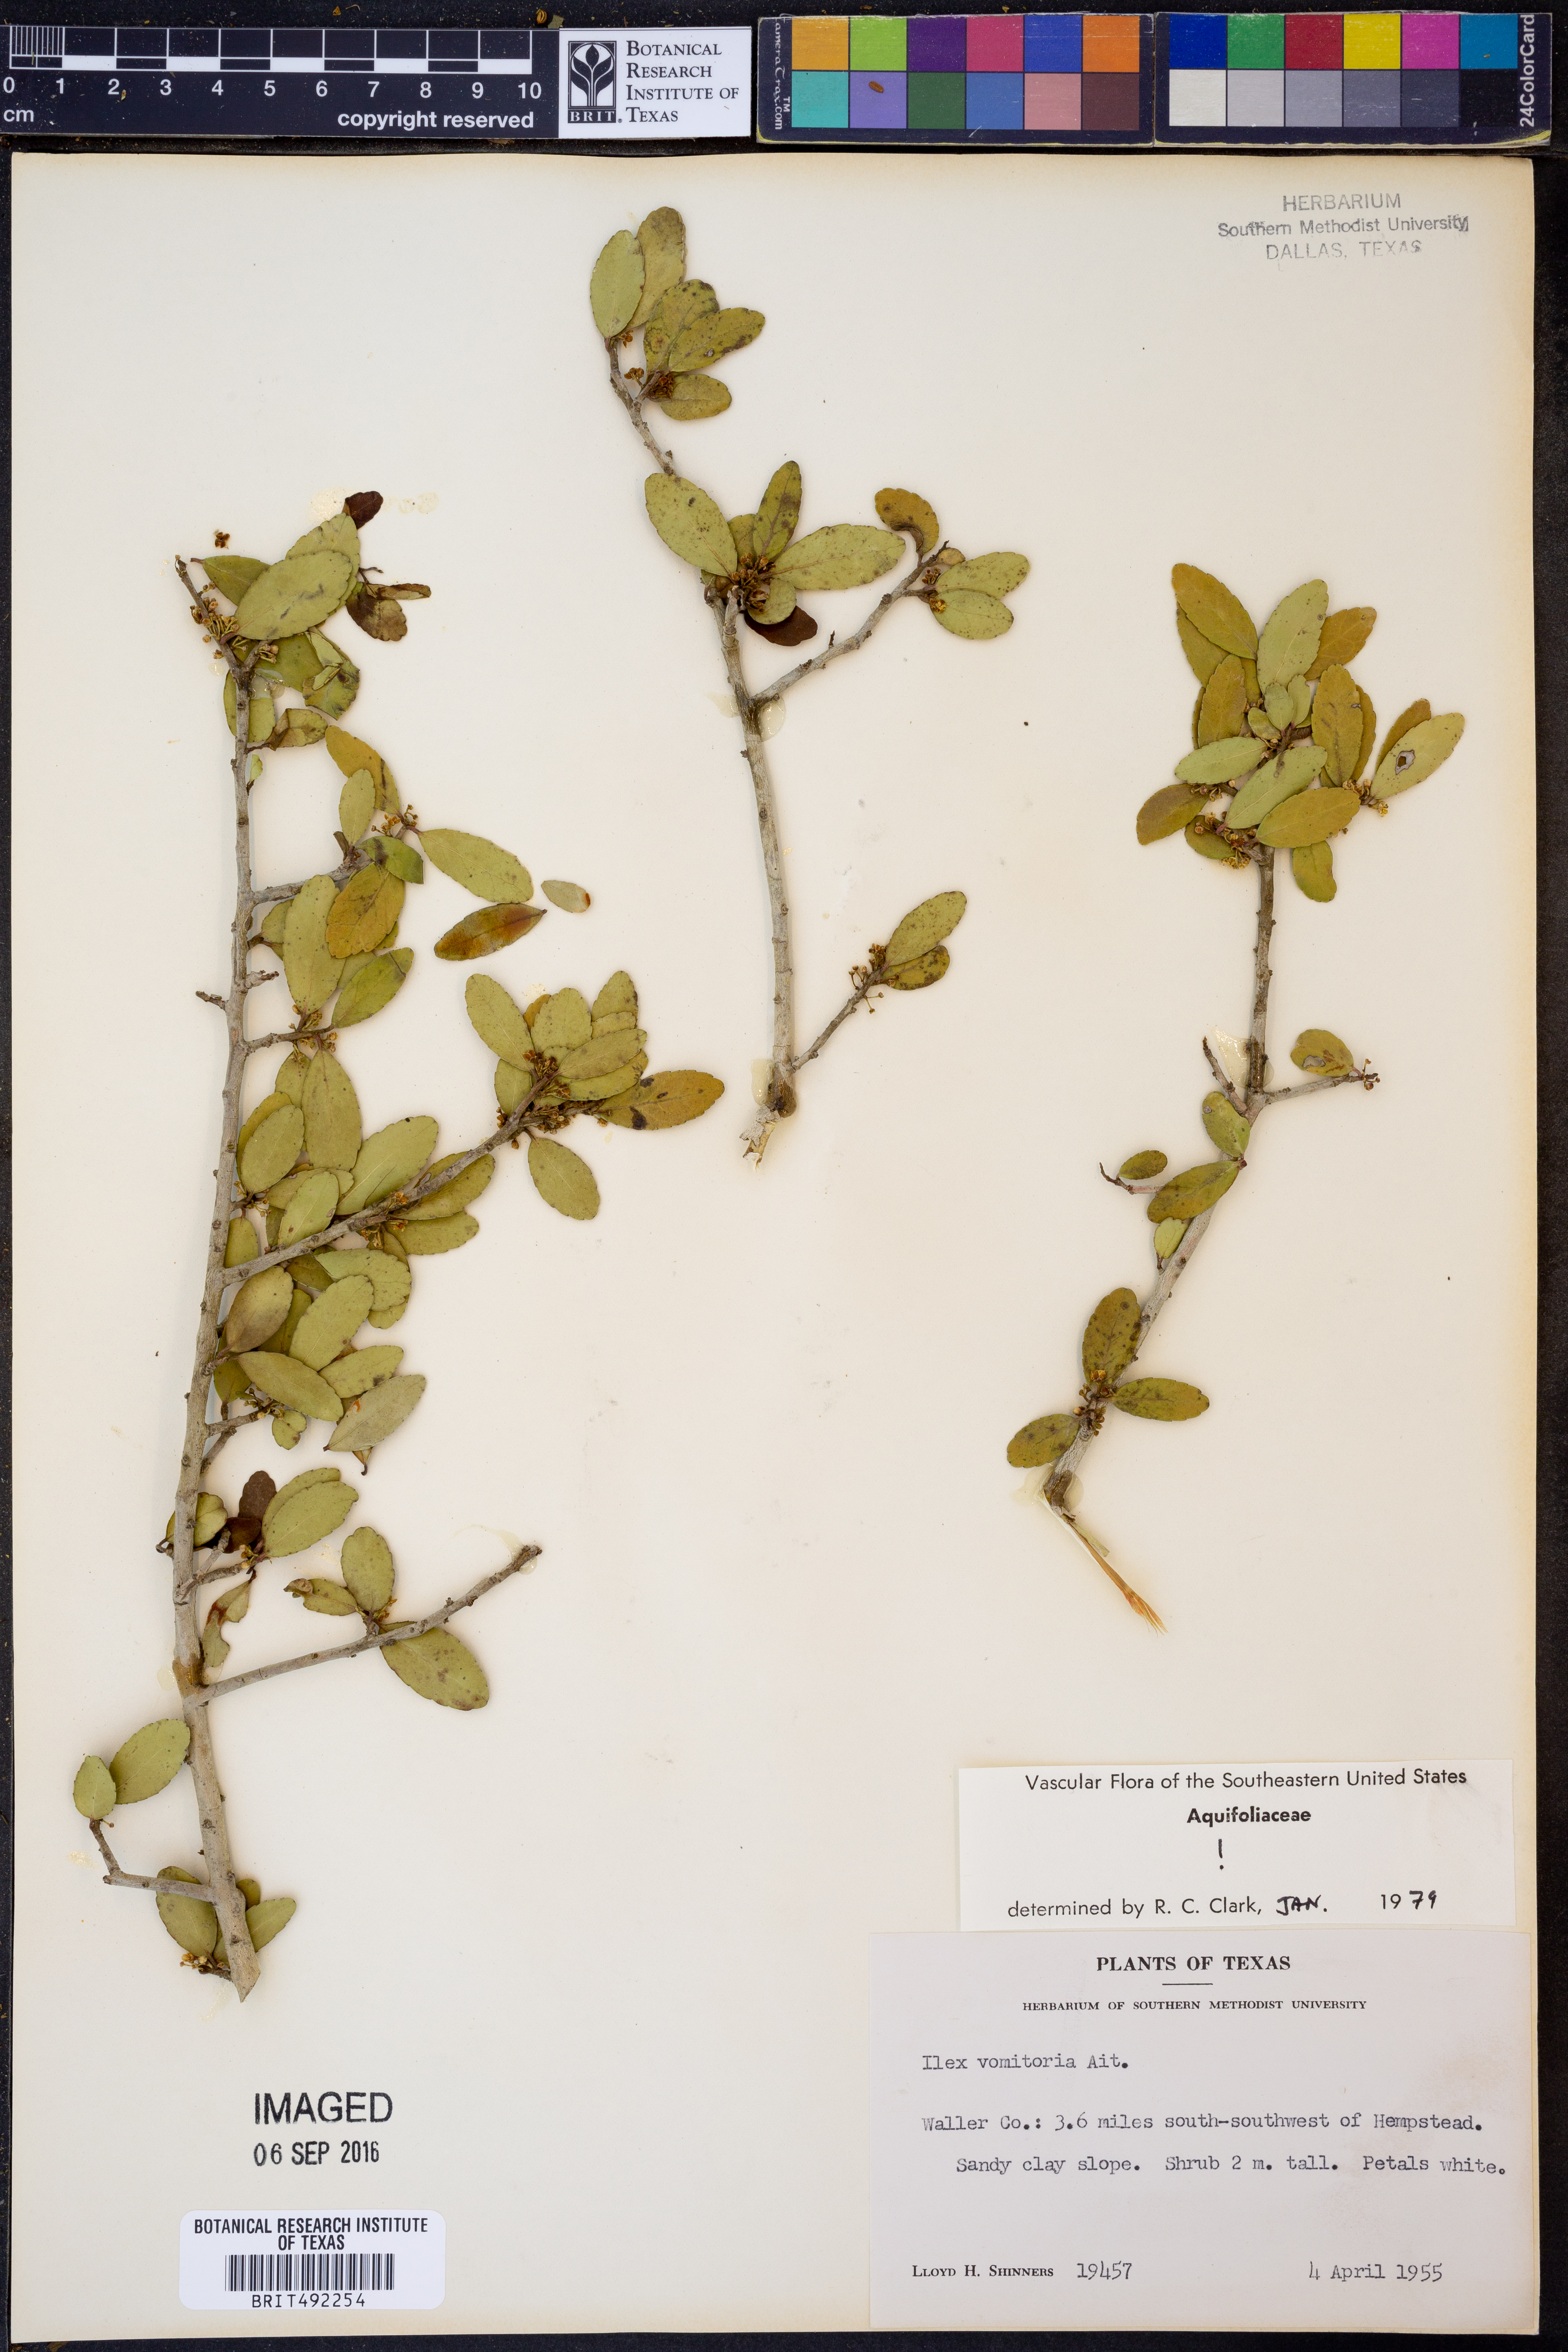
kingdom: Plantae
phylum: Tracheophyta
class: Magnoliopsida
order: Aquifoliales
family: Aquifoliaceae
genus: Ilex
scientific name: Ilex vomitoria
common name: Yaupon holly
